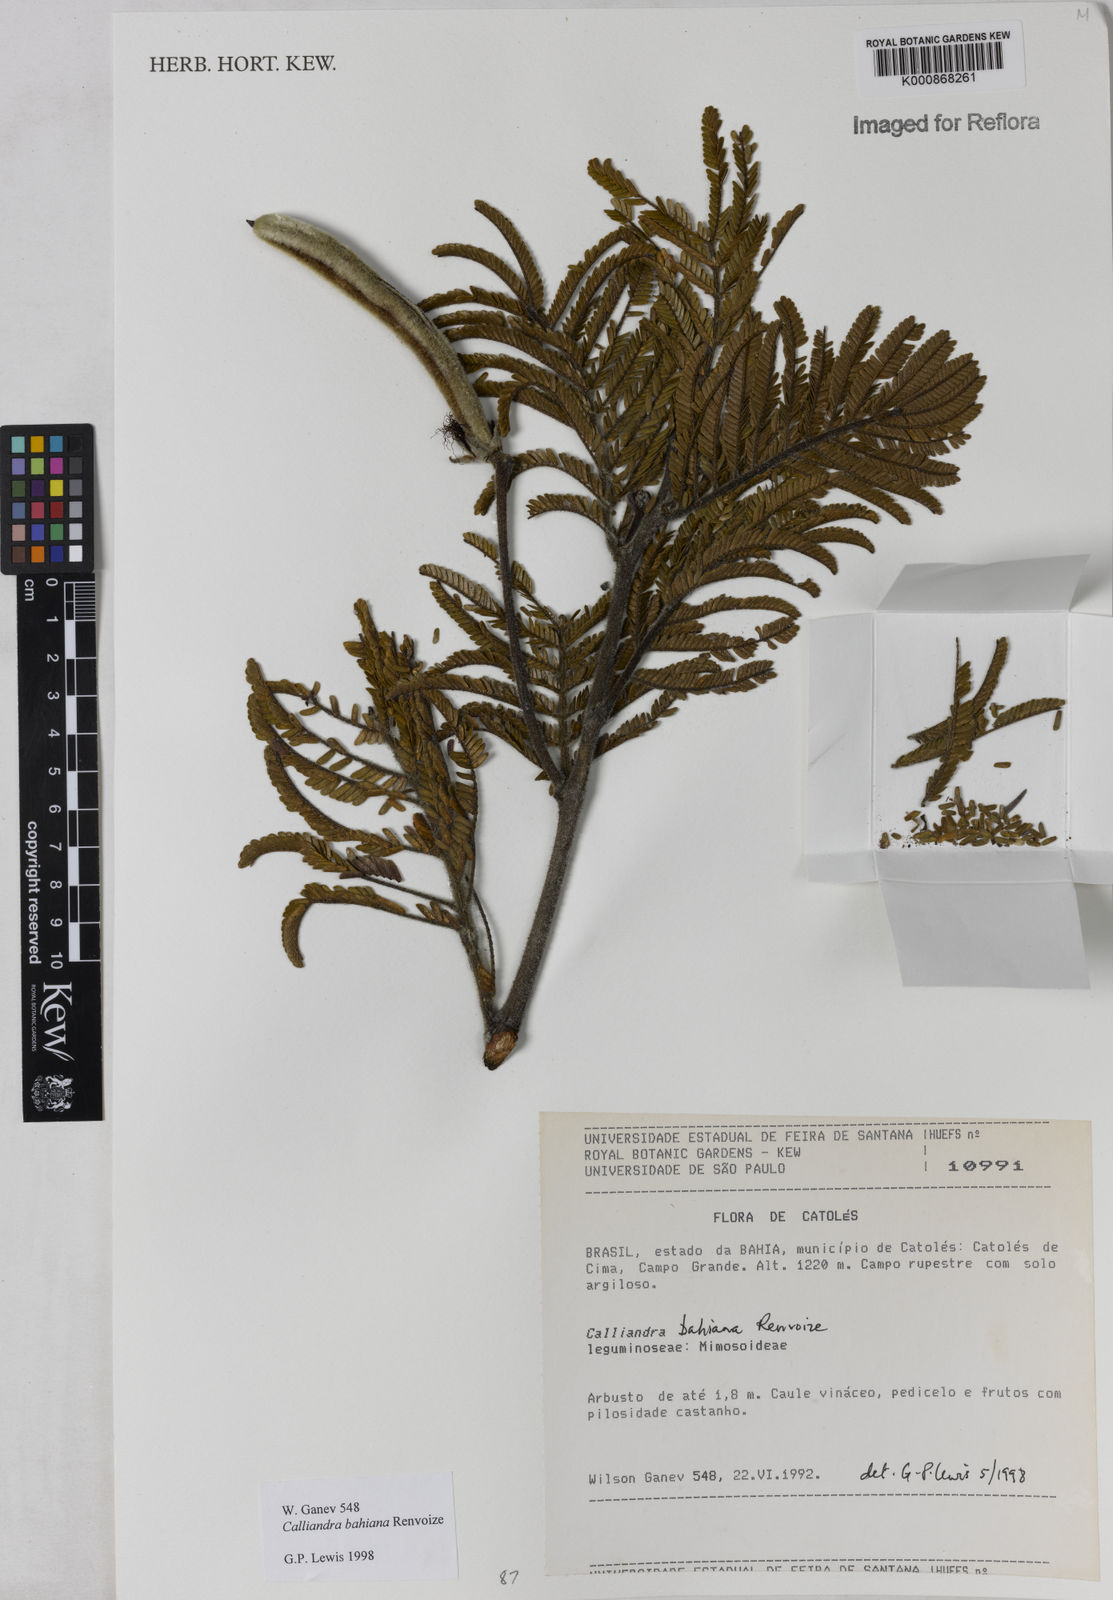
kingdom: Plantae
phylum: Tracheophyta
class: Magnoliopsida
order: Fabales
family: Fabaceae
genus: Calliandra
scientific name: Calliandra bahiana
